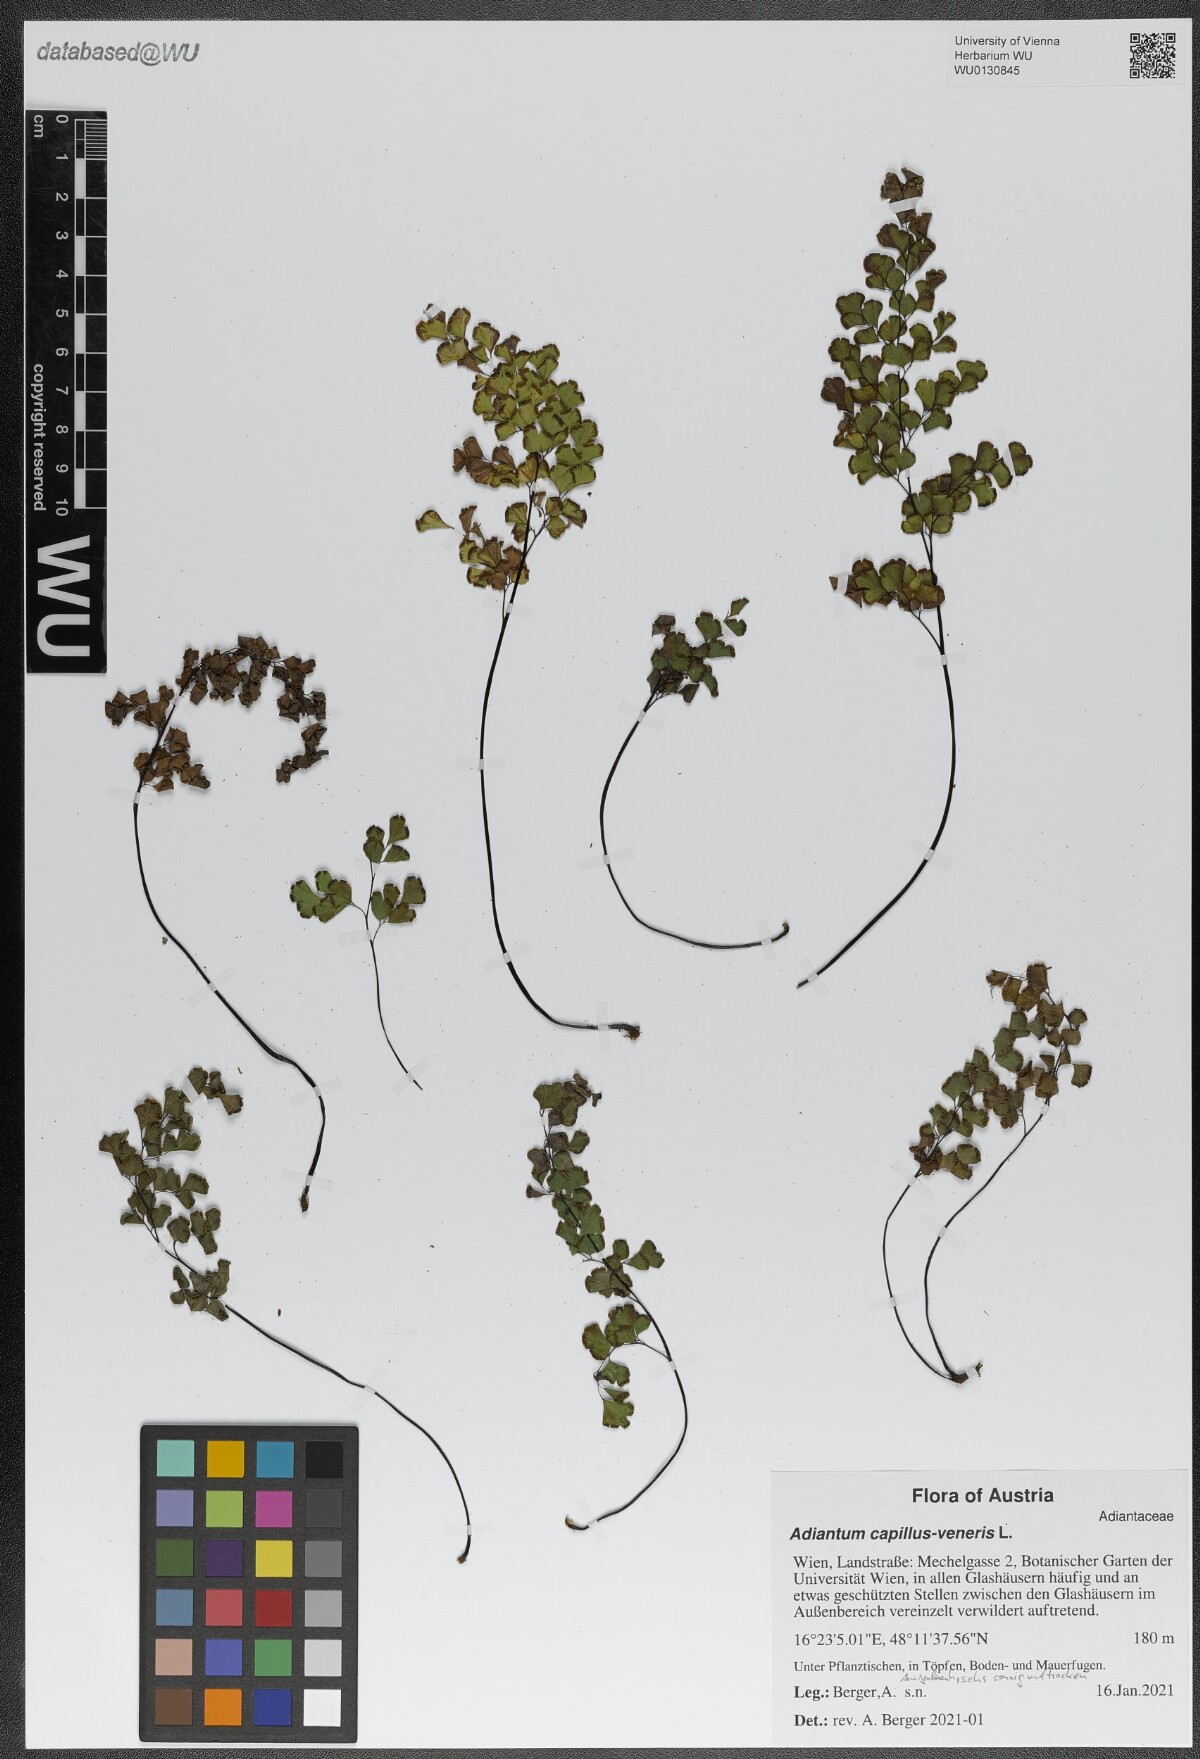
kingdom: Plantae
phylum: Tracheophyta
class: Polypodiopsida
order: Polypodiales
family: Pteridaceae
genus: Adiantum
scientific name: Adiantum capillus-veneris
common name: Maidenhair fern
